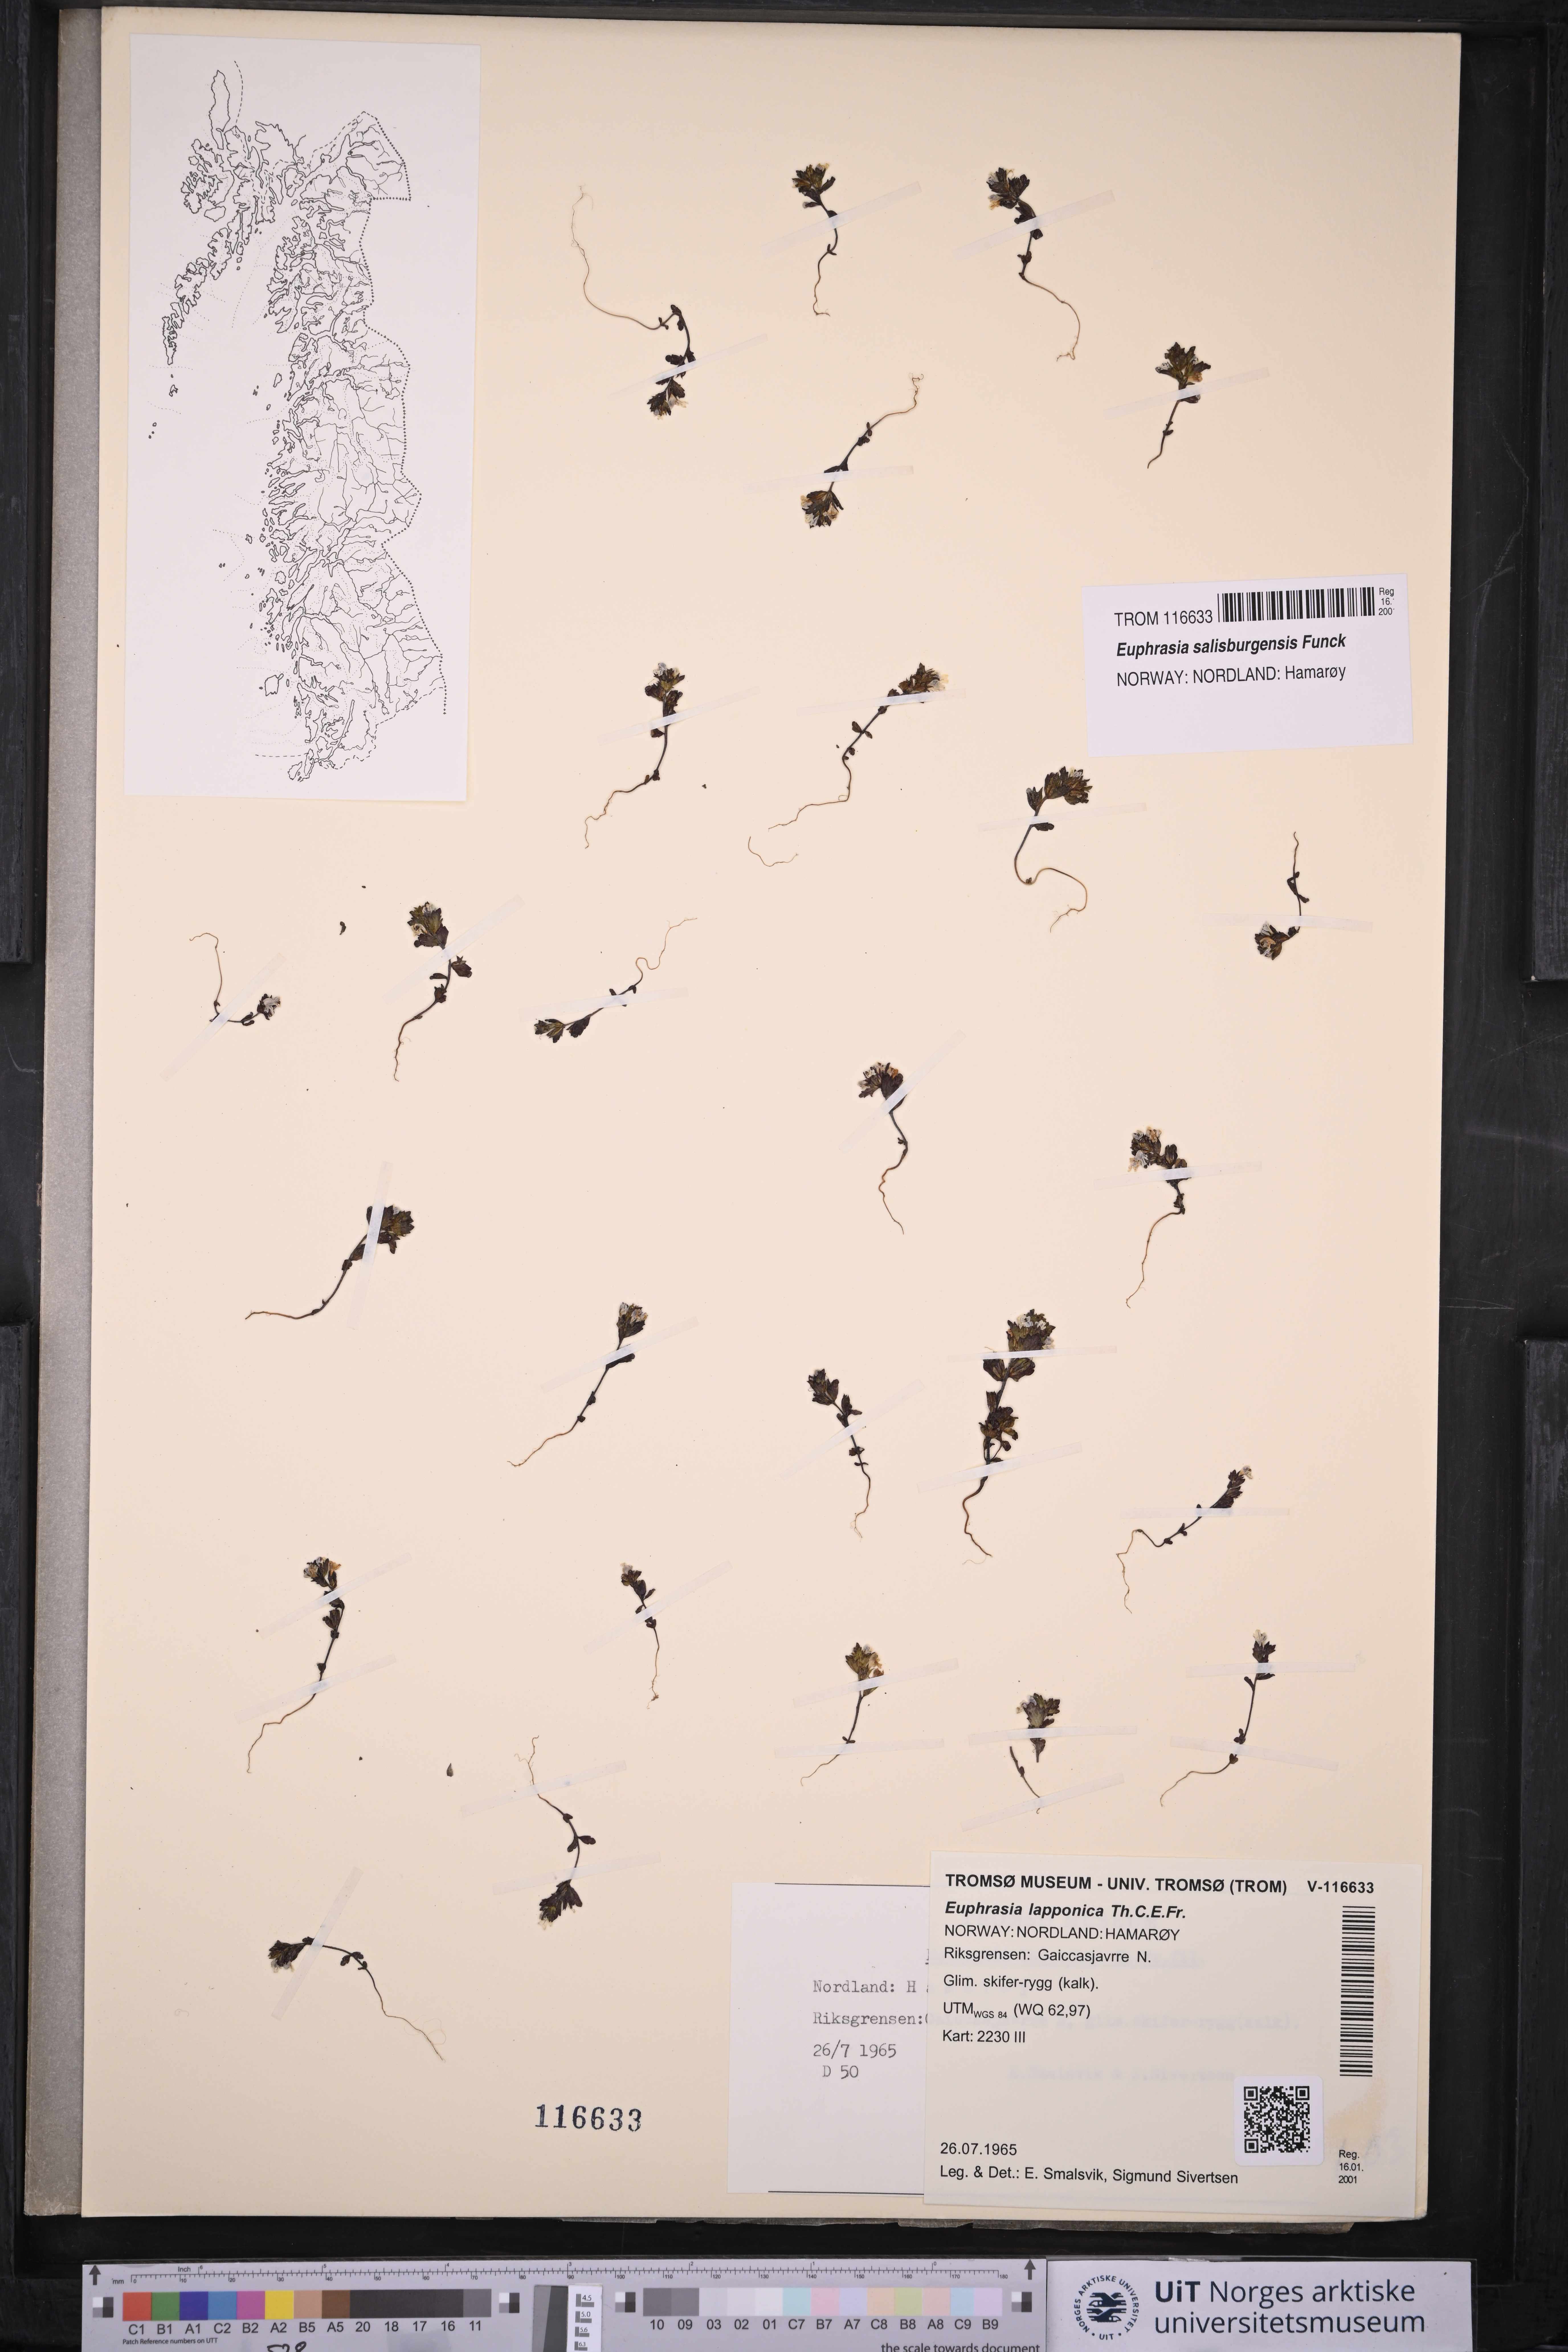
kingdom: Plantae
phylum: Tracheophyta
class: Magnoliopsida
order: Lamiales
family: Orobanchaceae
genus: Euphrasia
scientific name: Euphrasia salisburgensis
